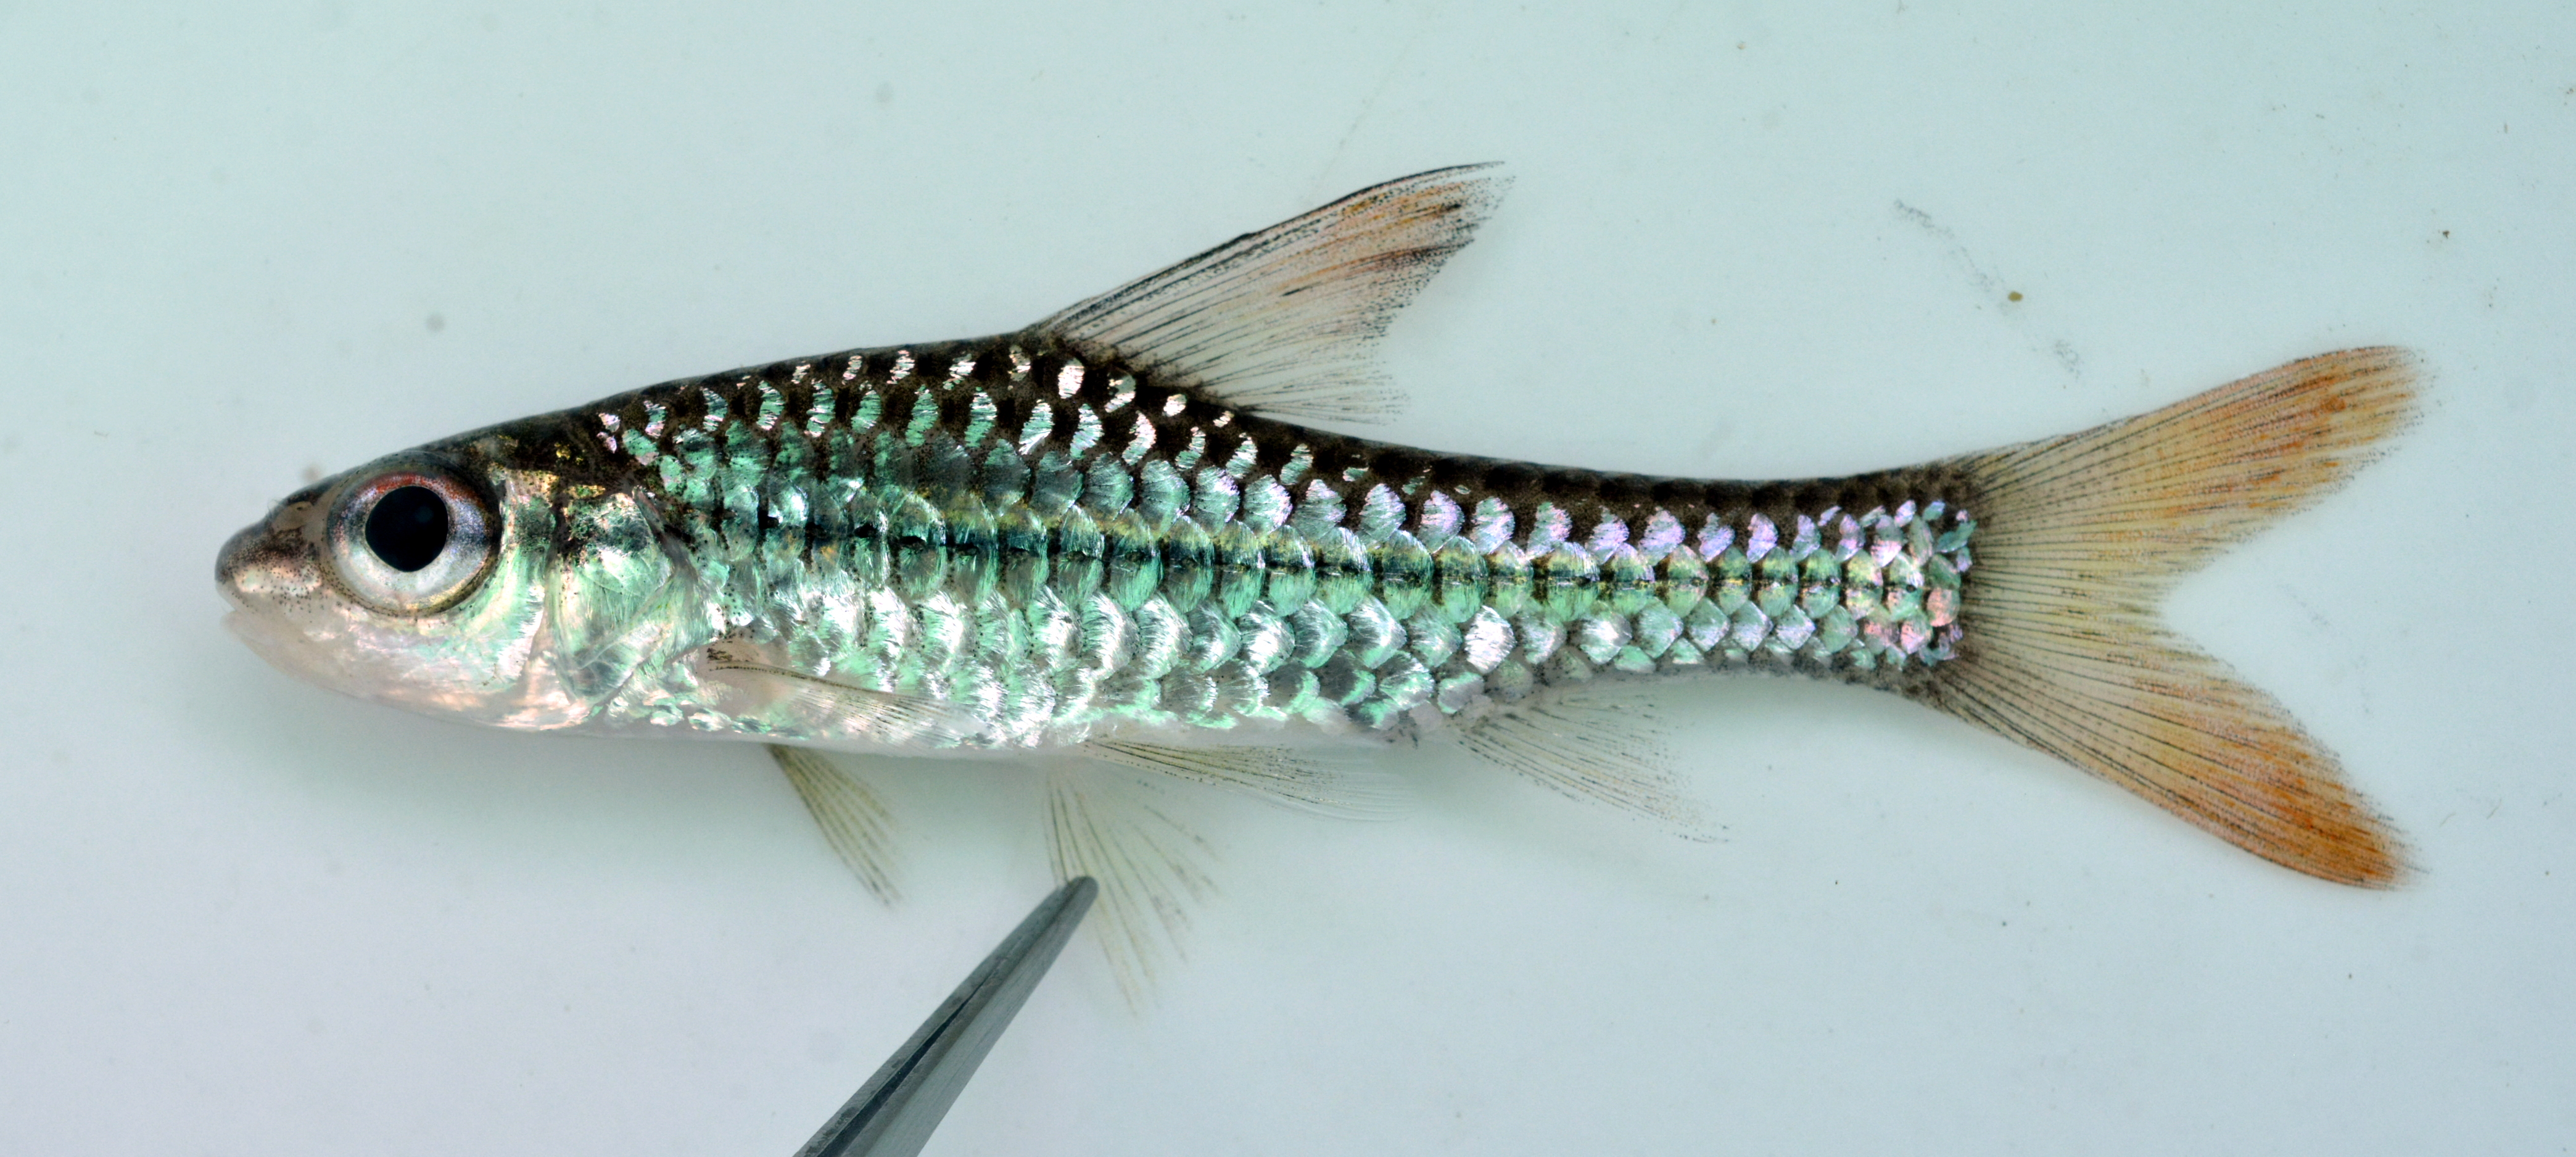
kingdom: Animalia
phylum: Chordata
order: Cypriniformes
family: Cyprinidae
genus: Enteromius
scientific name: Enteromius radiatus
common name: Beira barb
